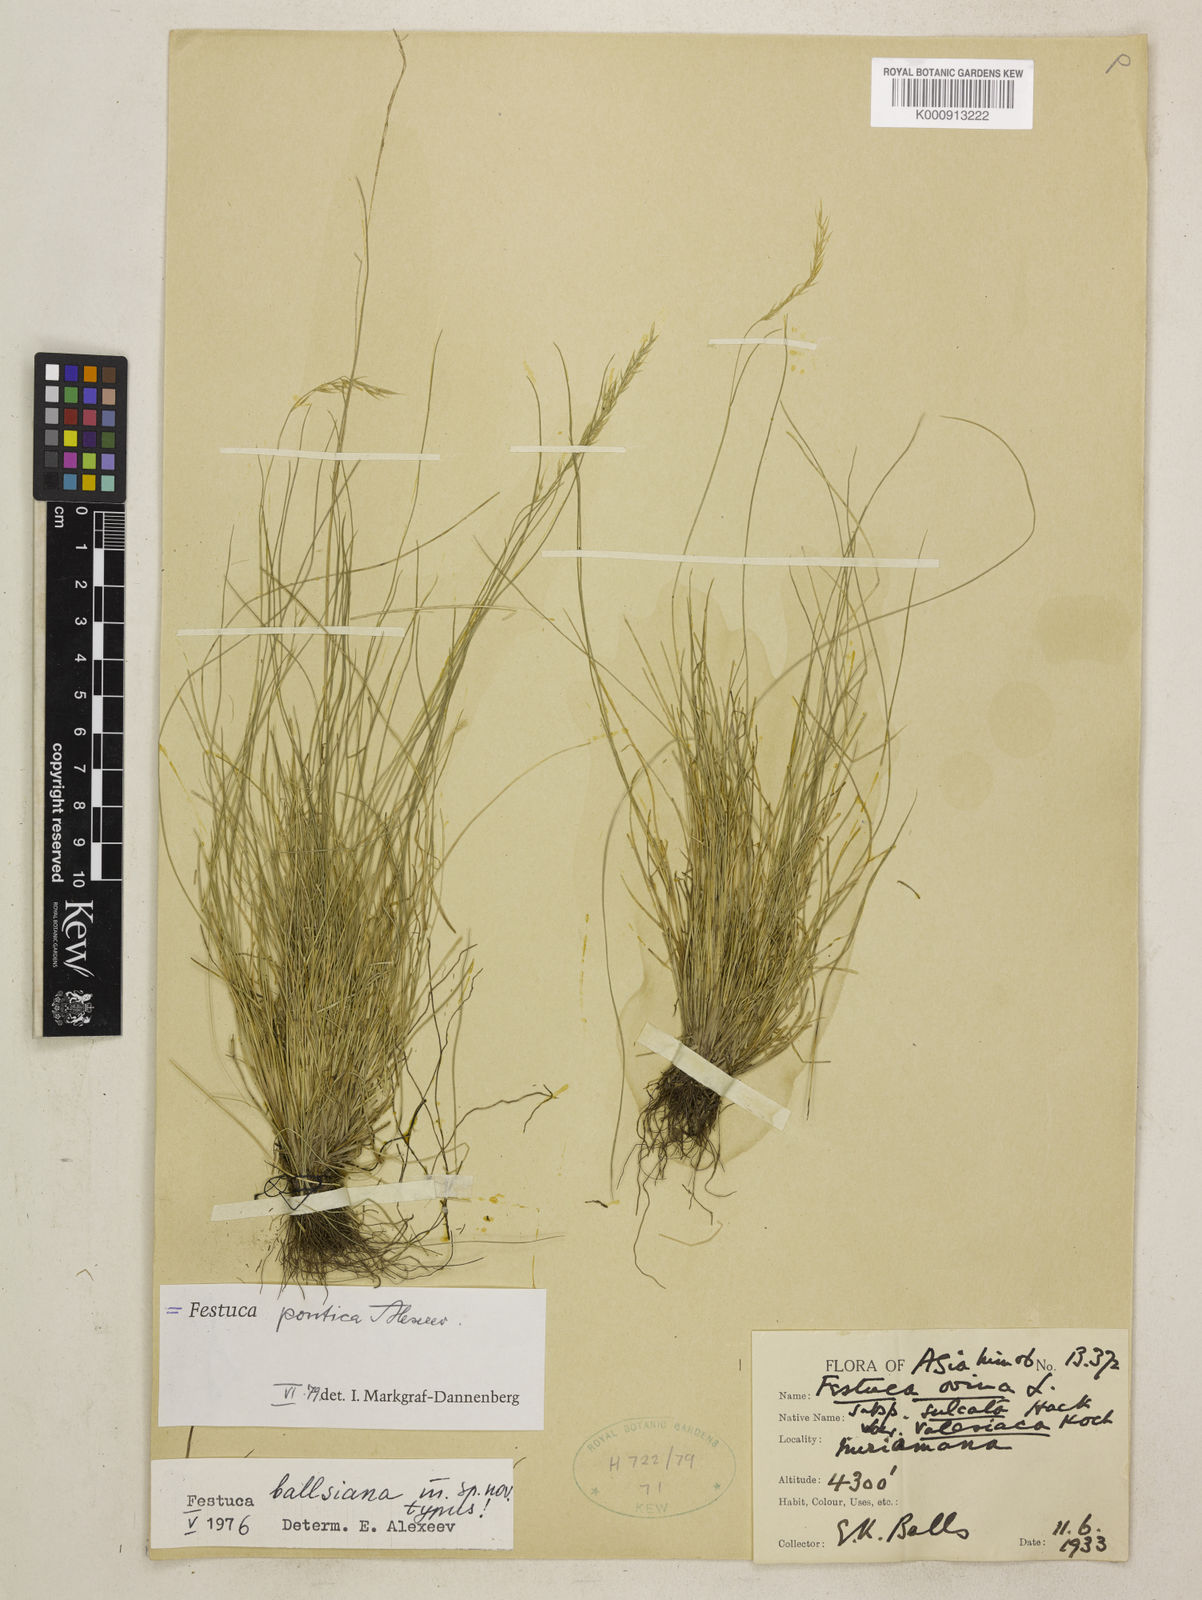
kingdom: Plantae
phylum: Tracheophyta
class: Liliopsida
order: Poales
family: Poaceae
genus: Festuca
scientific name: Festuca
